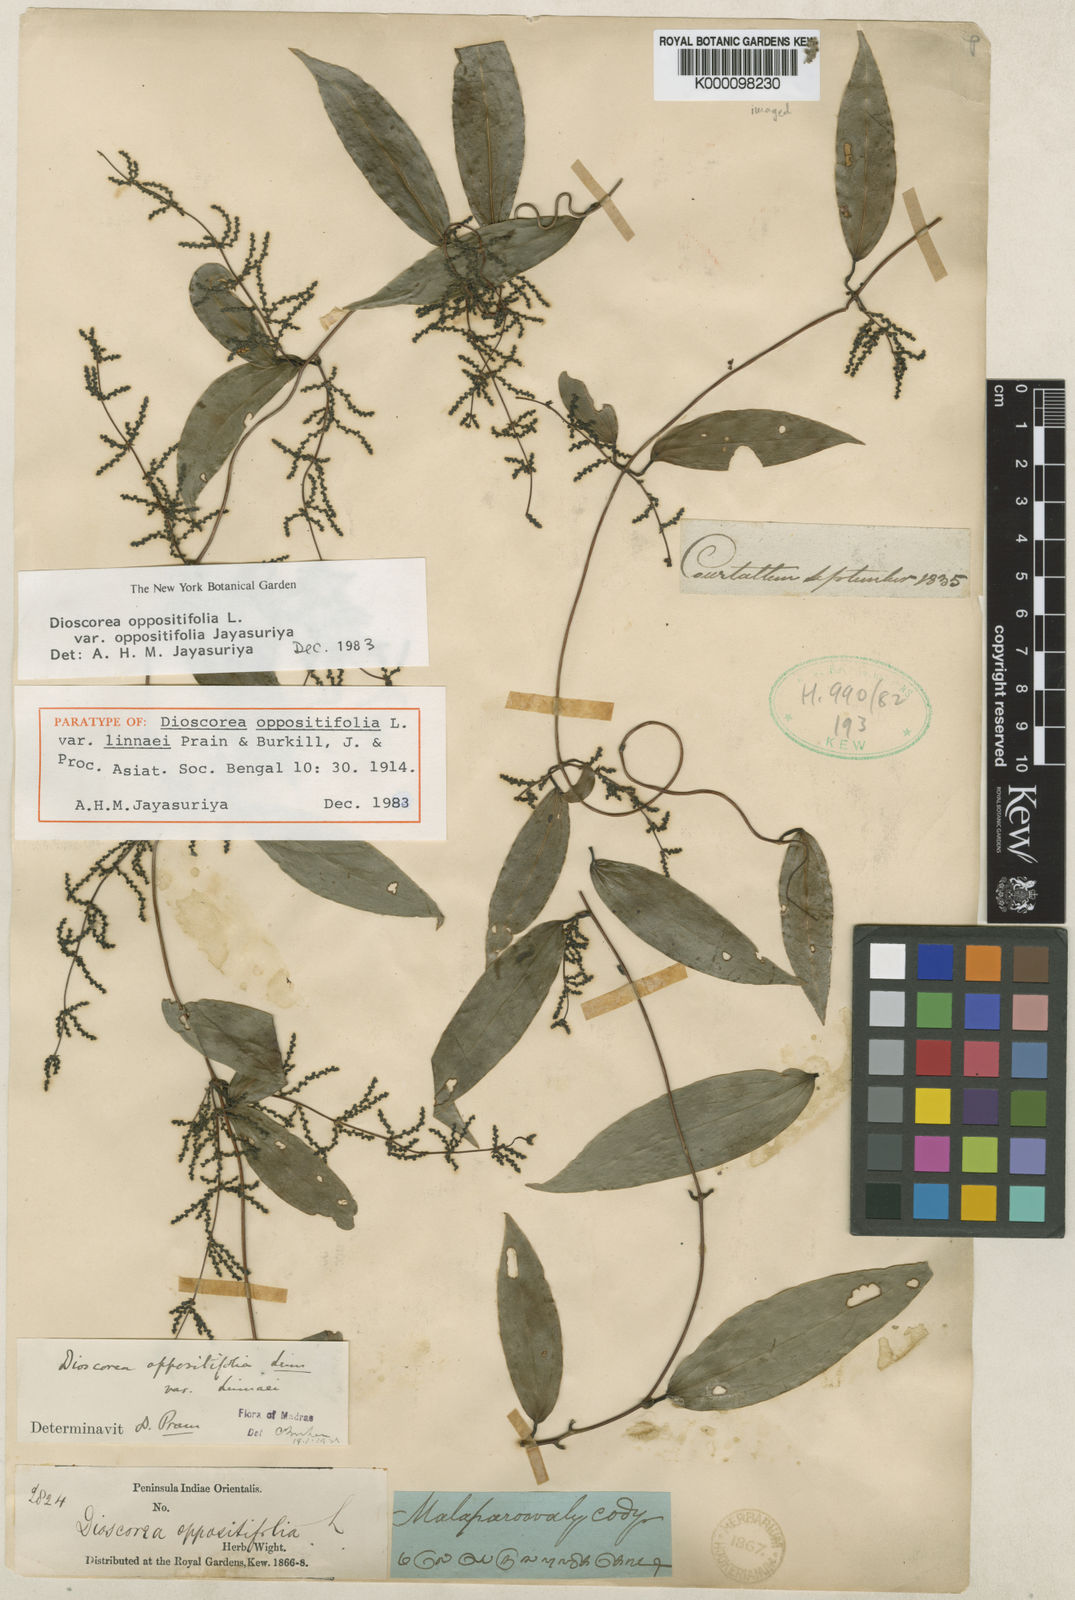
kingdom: Plantae
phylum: Tracheophyta
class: Liliopsida
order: Dioscoreales
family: Dioscoreaceae
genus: Dioscorea
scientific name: Dioscorea oppositifolia
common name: Chinese yam
